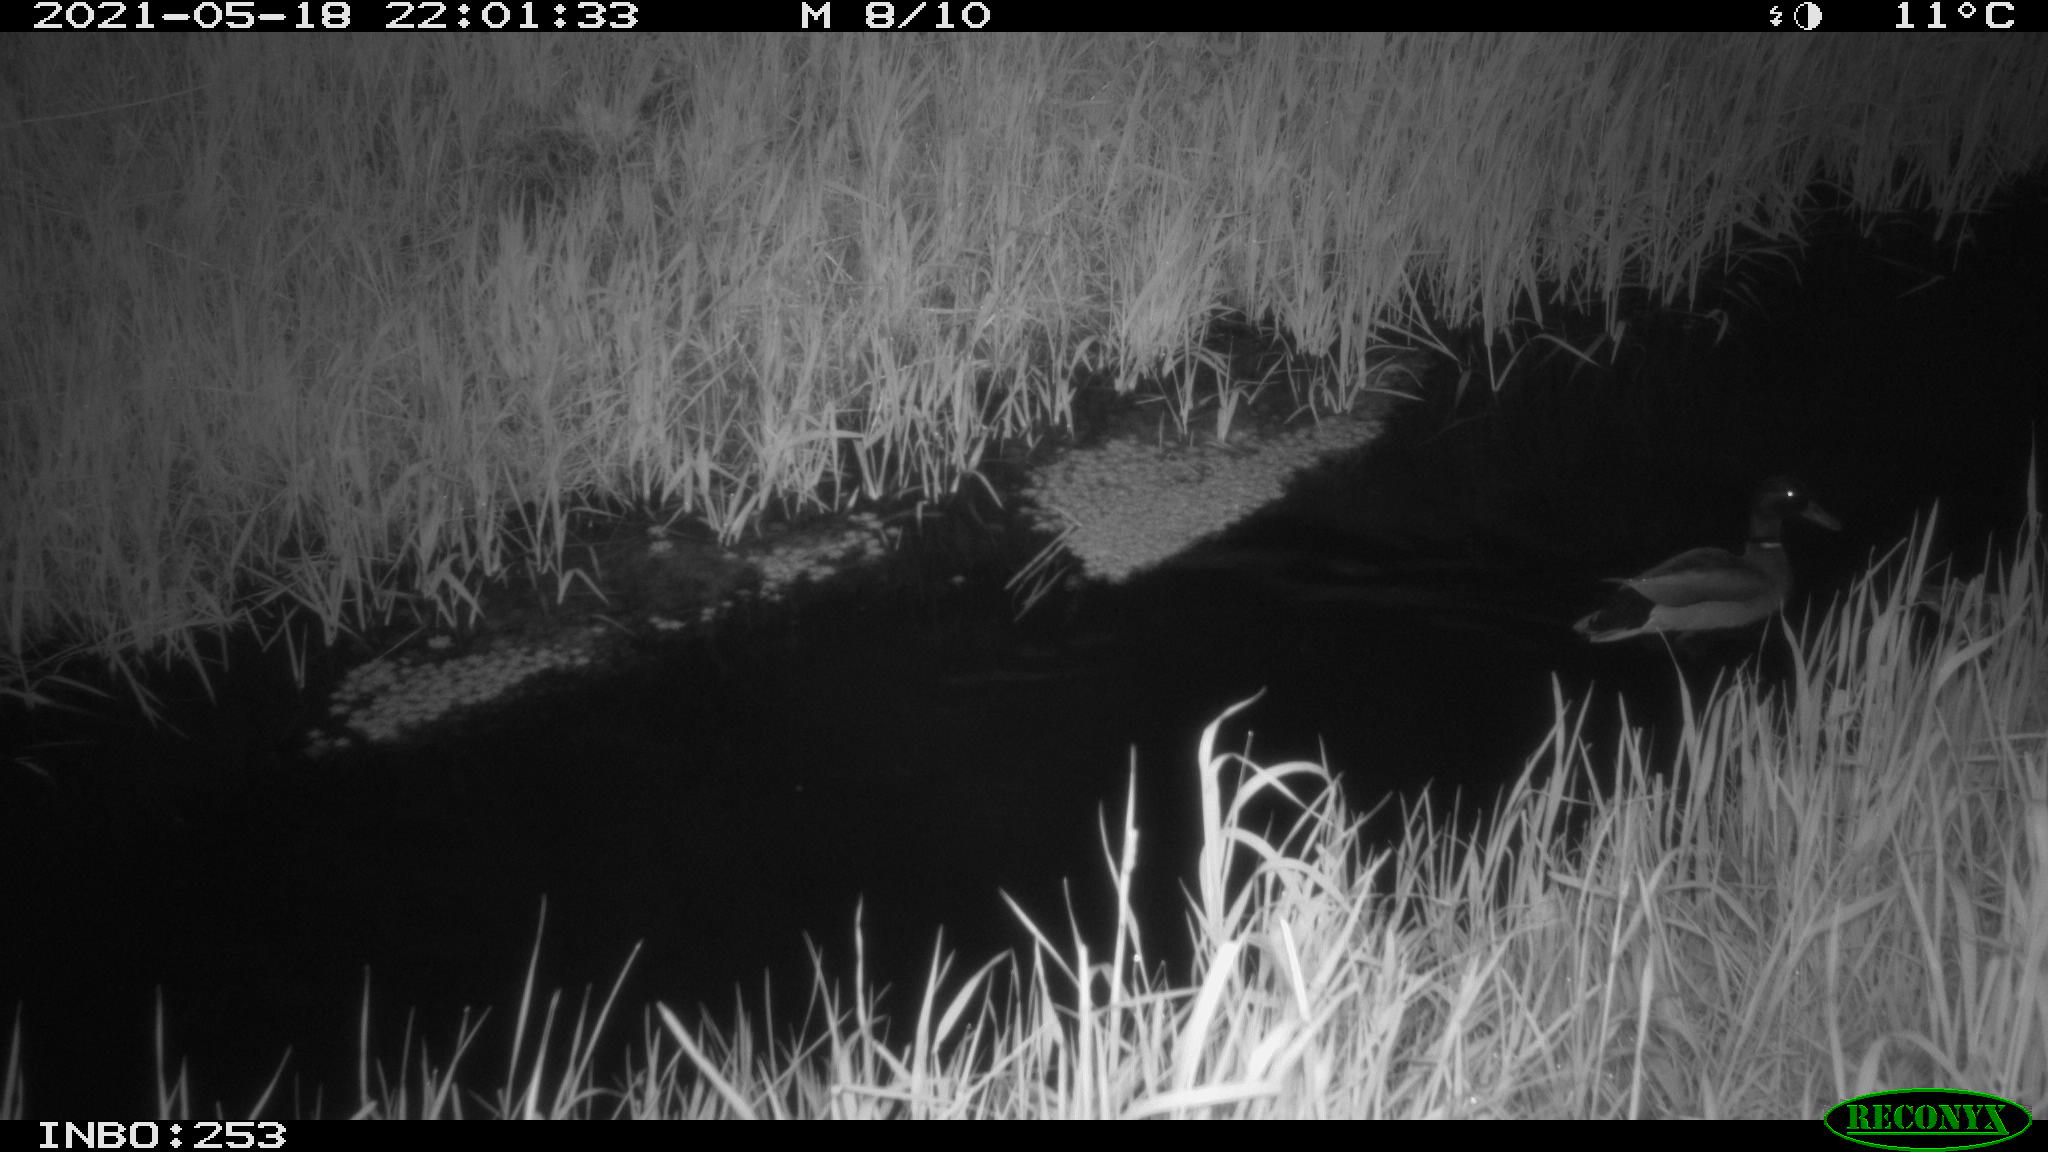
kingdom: Animalia
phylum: Chordata
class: Aves
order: Anseriformes
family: Anatidae
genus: Anas
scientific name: Anas platyrhynchos
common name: Mallard
